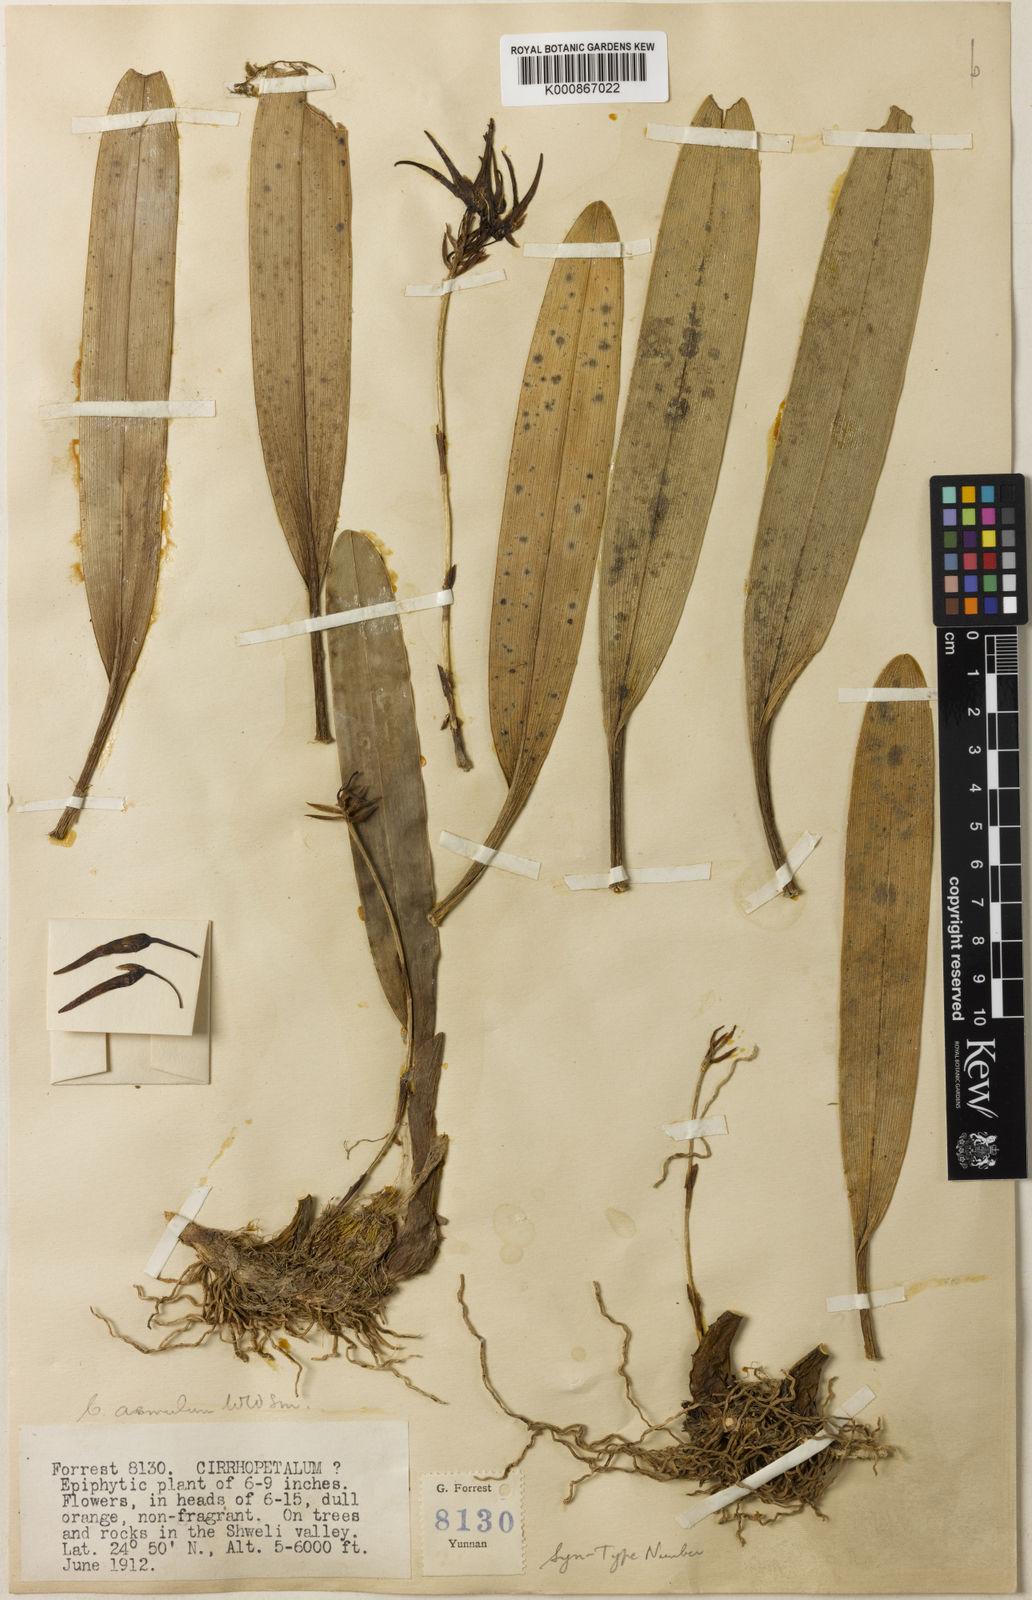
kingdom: Plantae
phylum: Tracheophyta
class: Liliopsida
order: Asparagales
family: Orchidaceae
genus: Bulbophyllum
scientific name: Bulbophyllum forrestii
